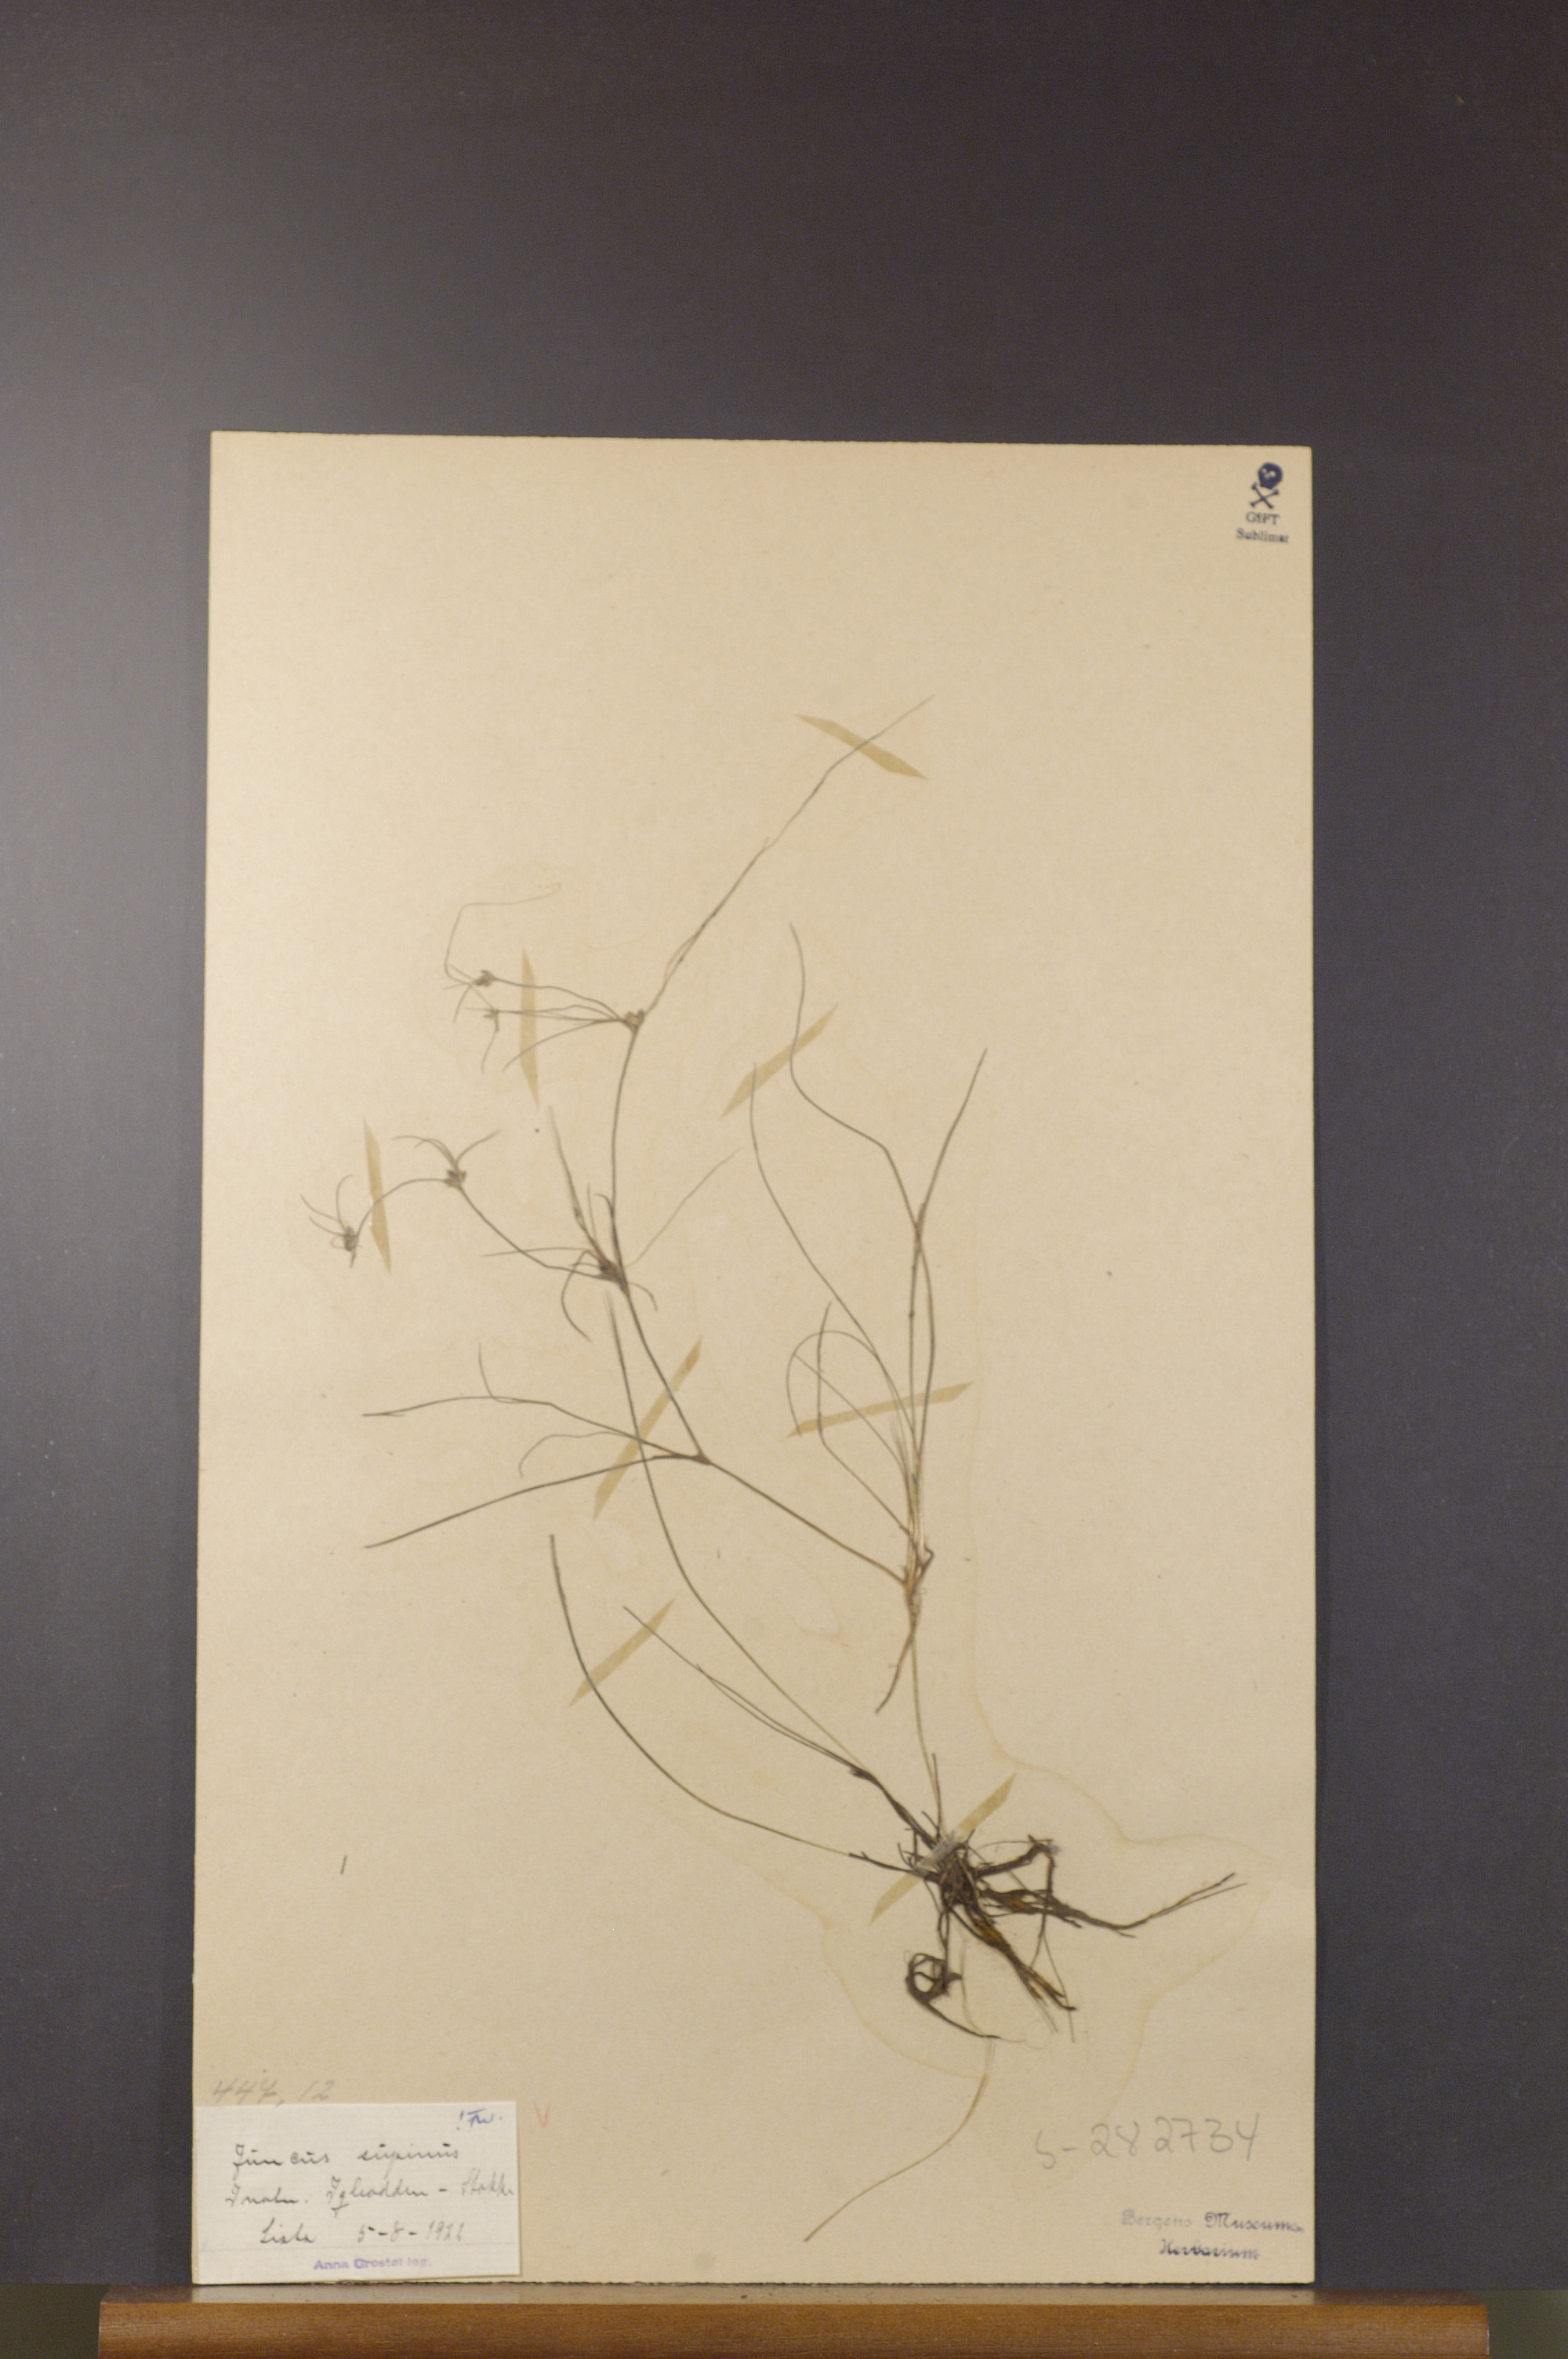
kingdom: Plantae
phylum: Tracheophyta
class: Liliopsida
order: Poales
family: Juncaceae
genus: Juncus
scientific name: Juncus bulbosus
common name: Bulbous rush
